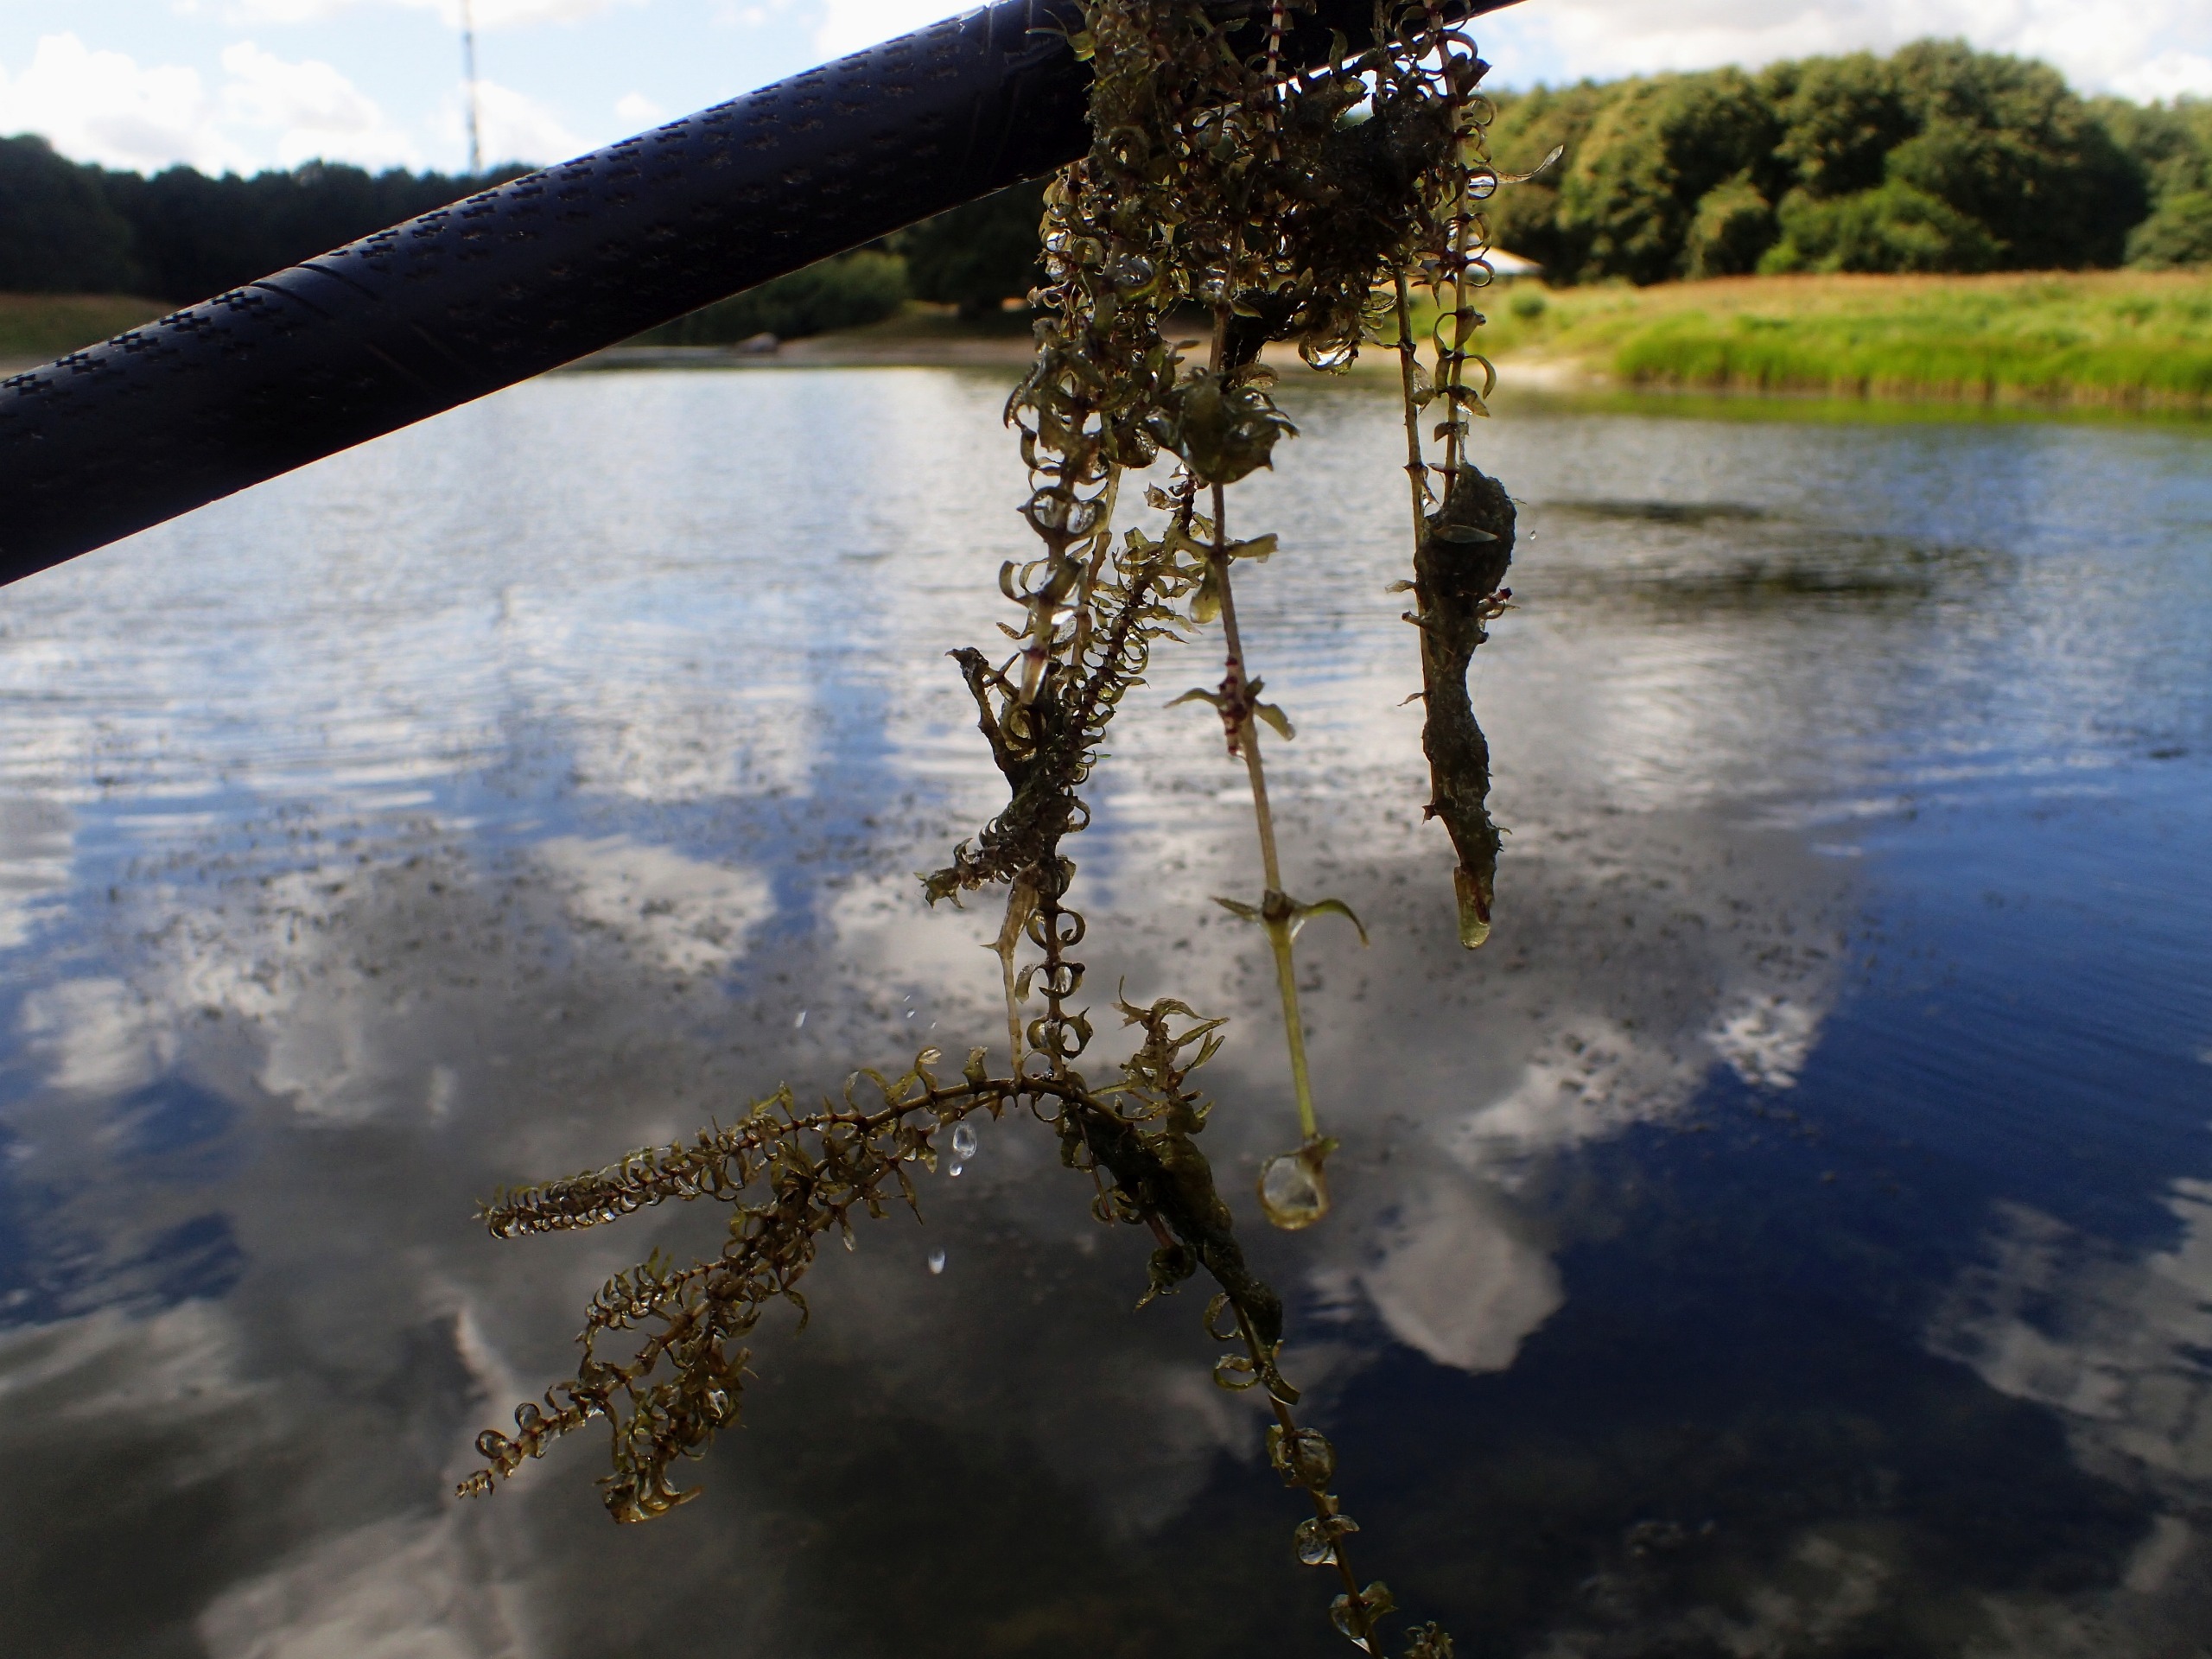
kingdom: Plantae
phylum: Tracheophyta
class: Liliopsida
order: Alismatales
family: Hydrocharitaceae
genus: Elodea
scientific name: Elodea nuttallii
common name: Smalbladet vandpest
